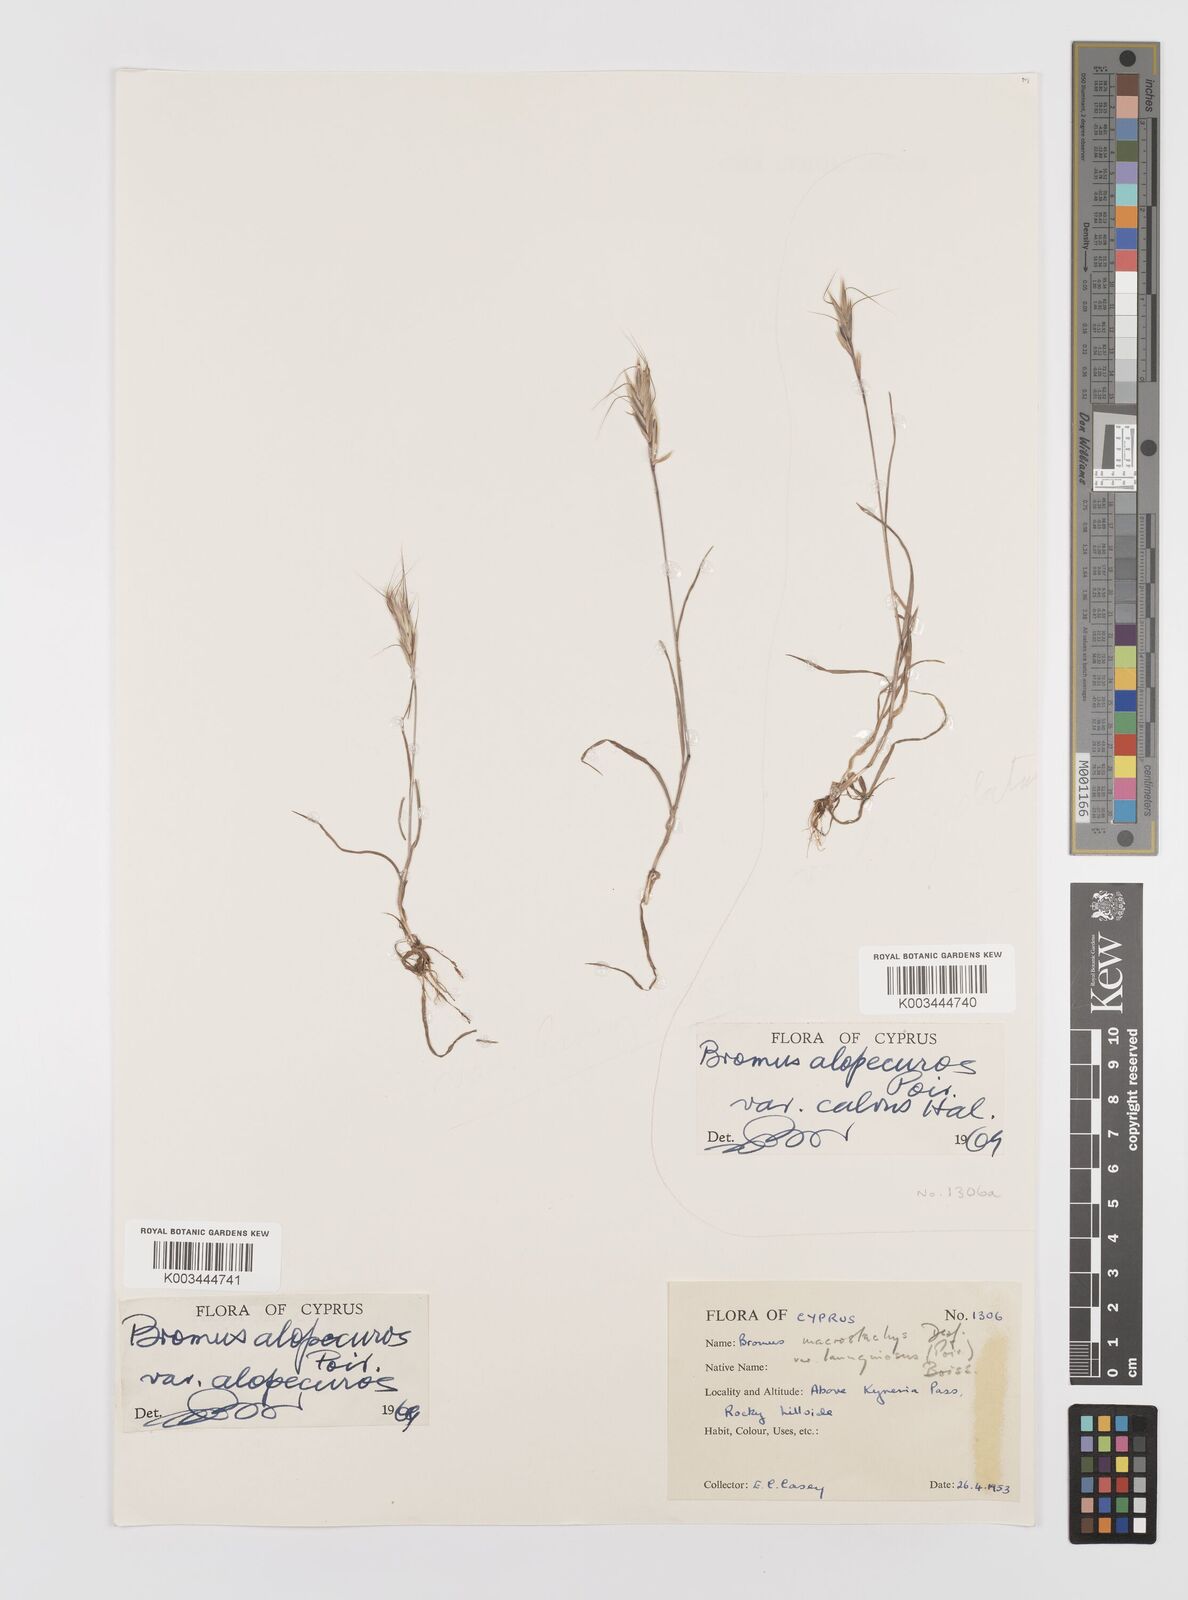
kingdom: Plantae
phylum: Tracheophyta
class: Liliopsida
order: Poales
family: Poaceae
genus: Bromus
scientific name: Bromus alopecuros
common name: Weedy brome
